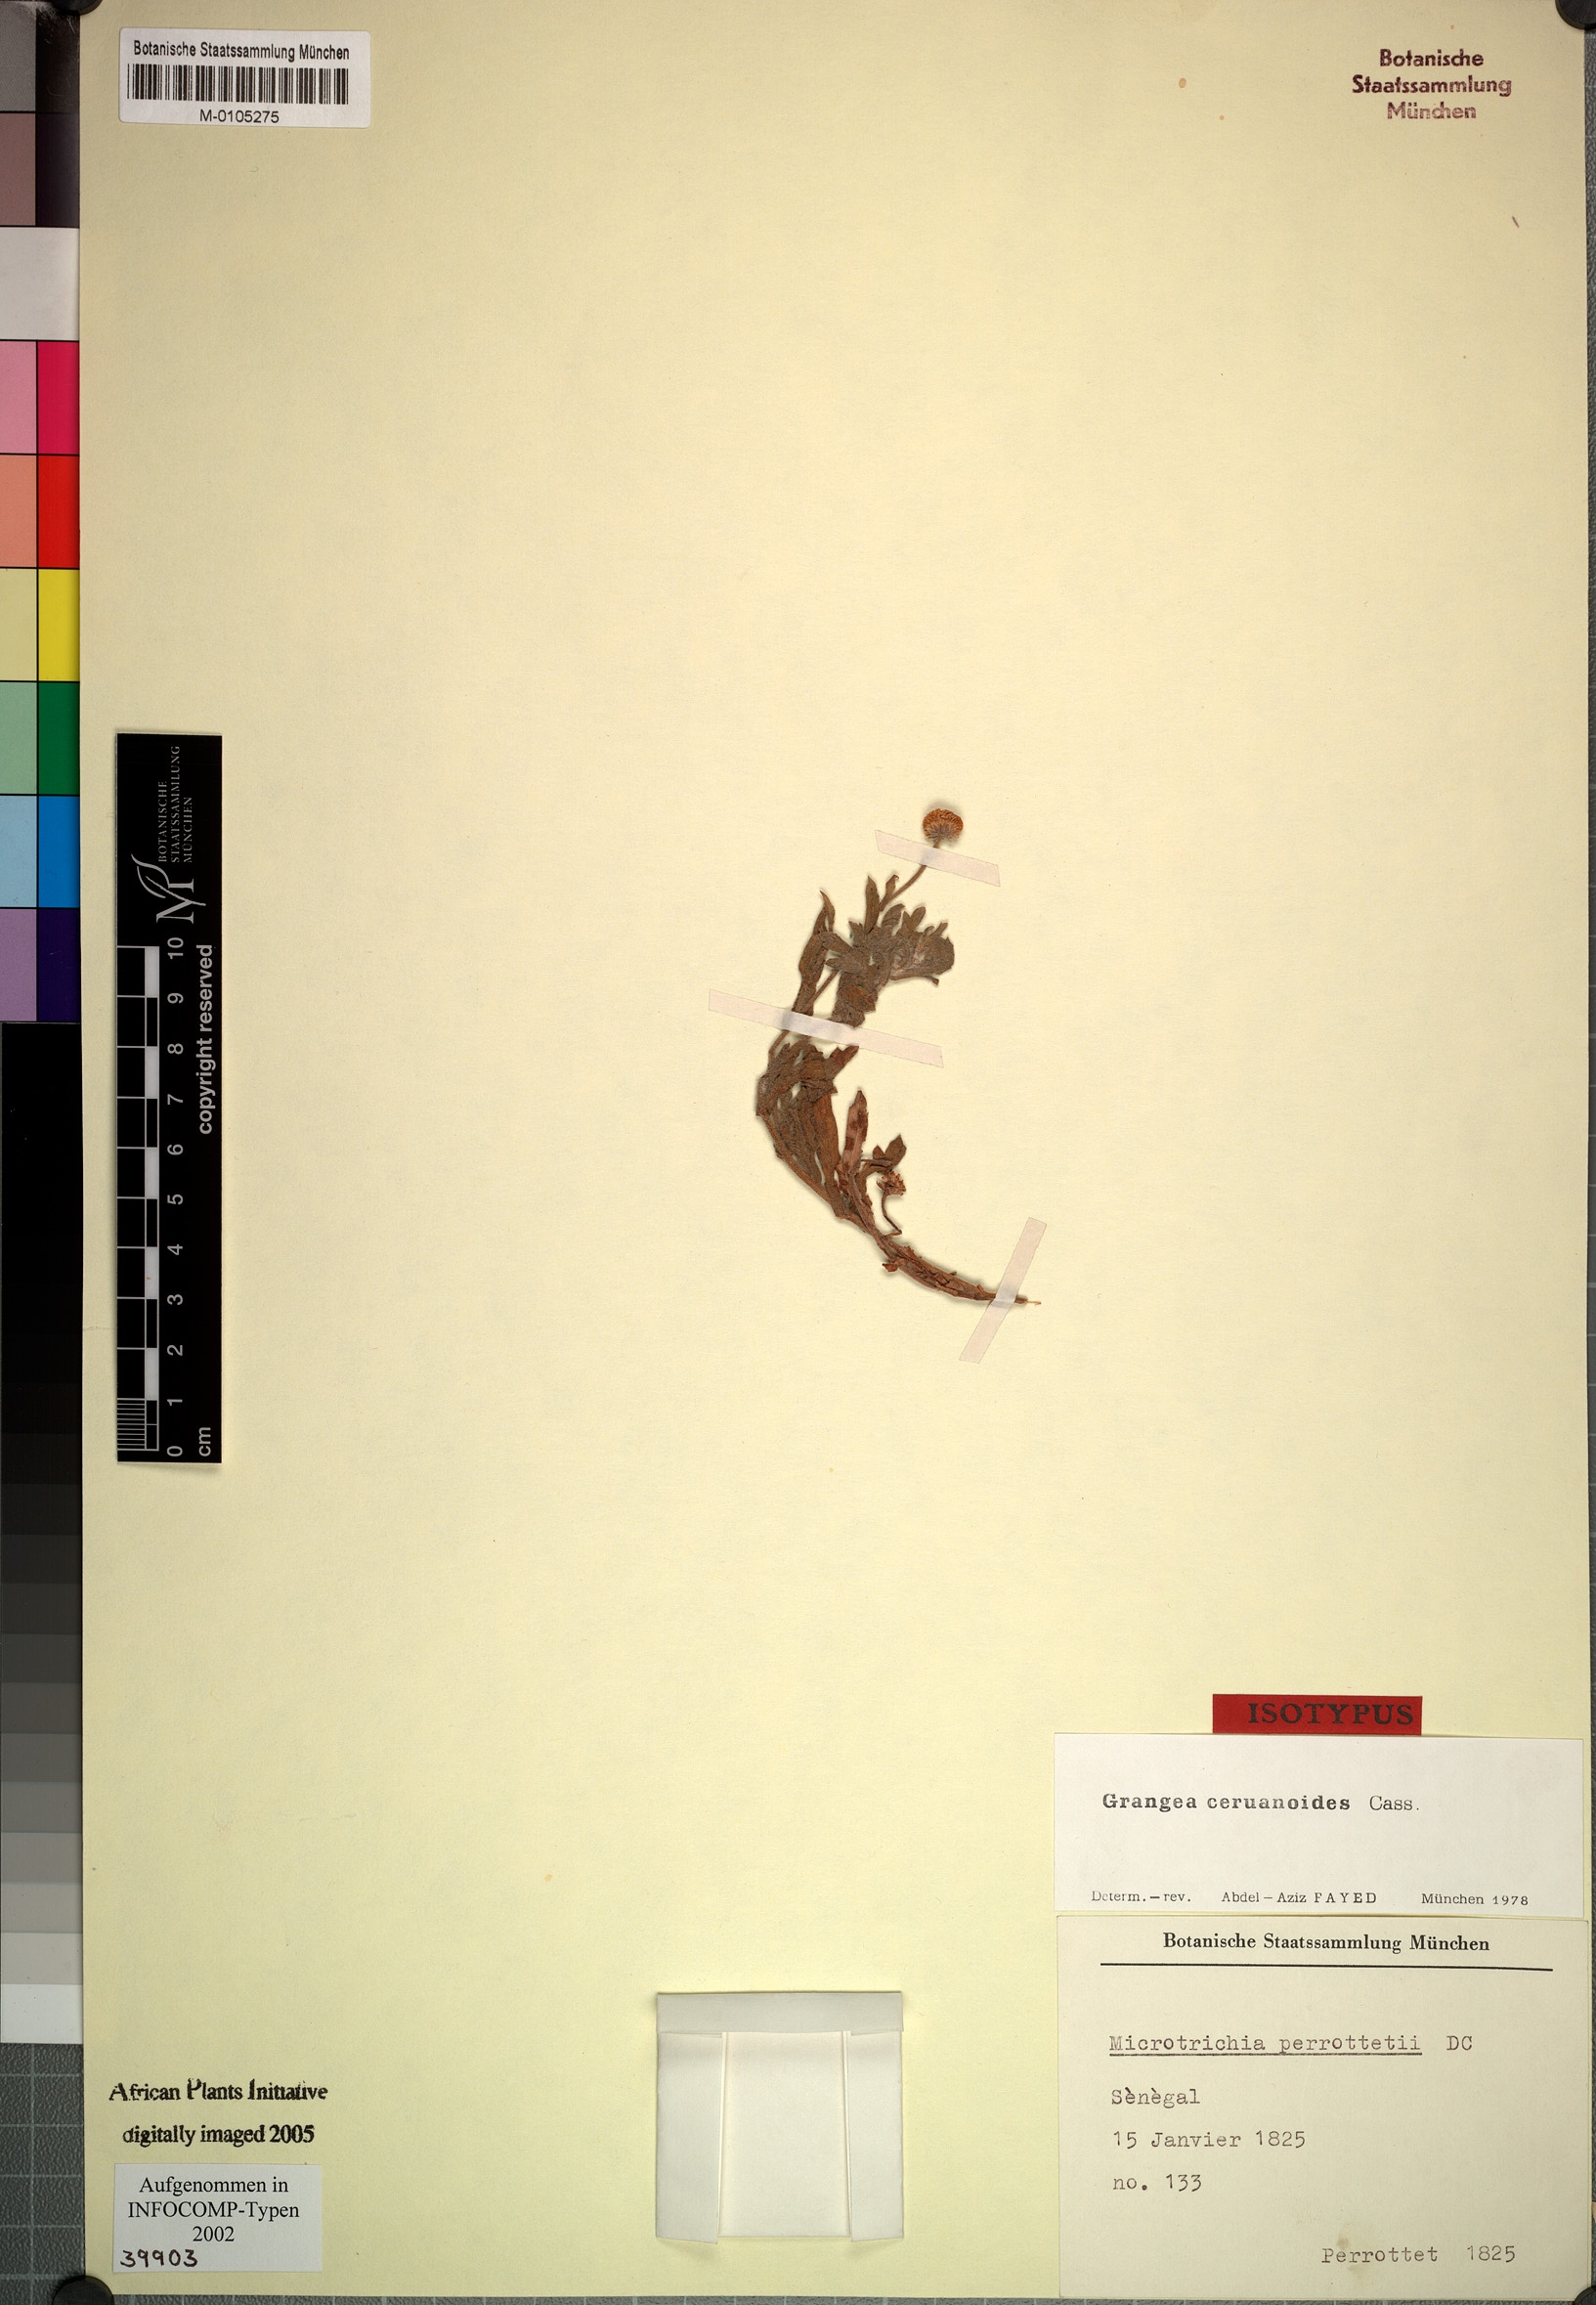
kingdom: Plantae
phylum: Tracheophyta
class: Magnoliopsida
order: Asterales
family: Asteraceae
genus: Grangea
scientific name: Grangea ceruanoides
